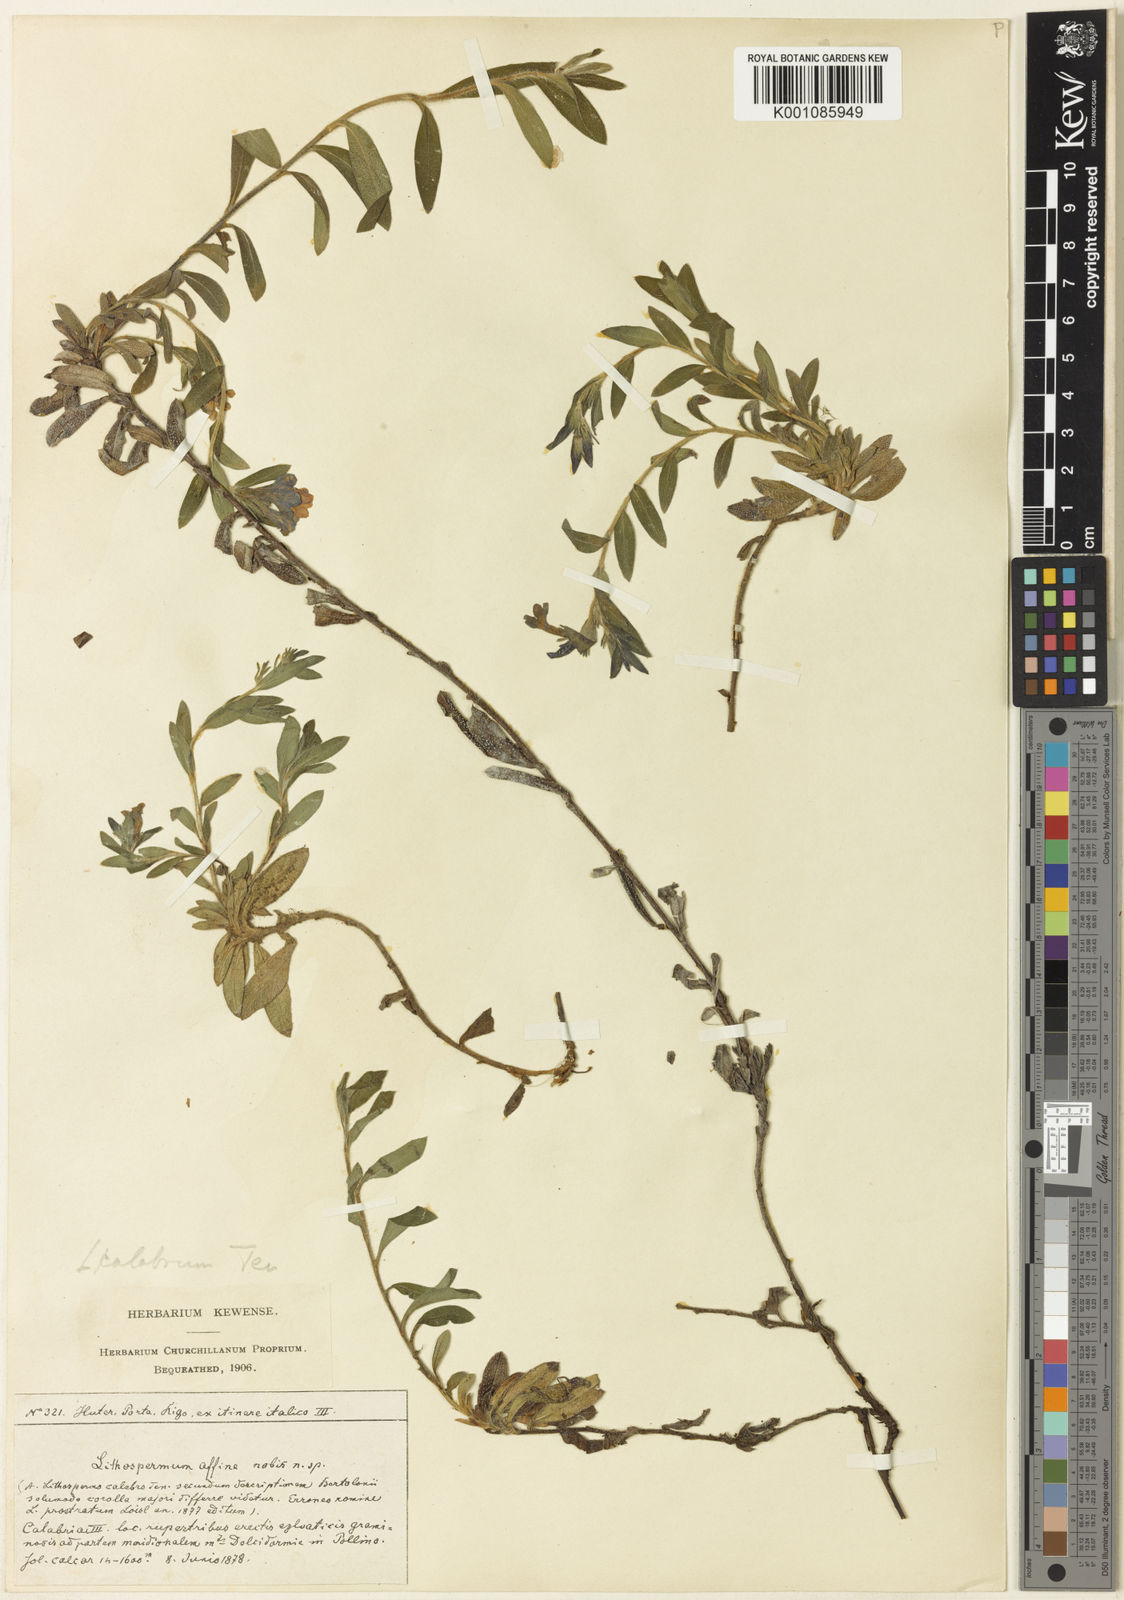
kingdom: Plantae
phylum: Tracheophyta
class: Magnoliopsida
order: Boraginales
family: Boraginaceae
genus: Aegonychon
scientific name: Aegonychon calabrum
